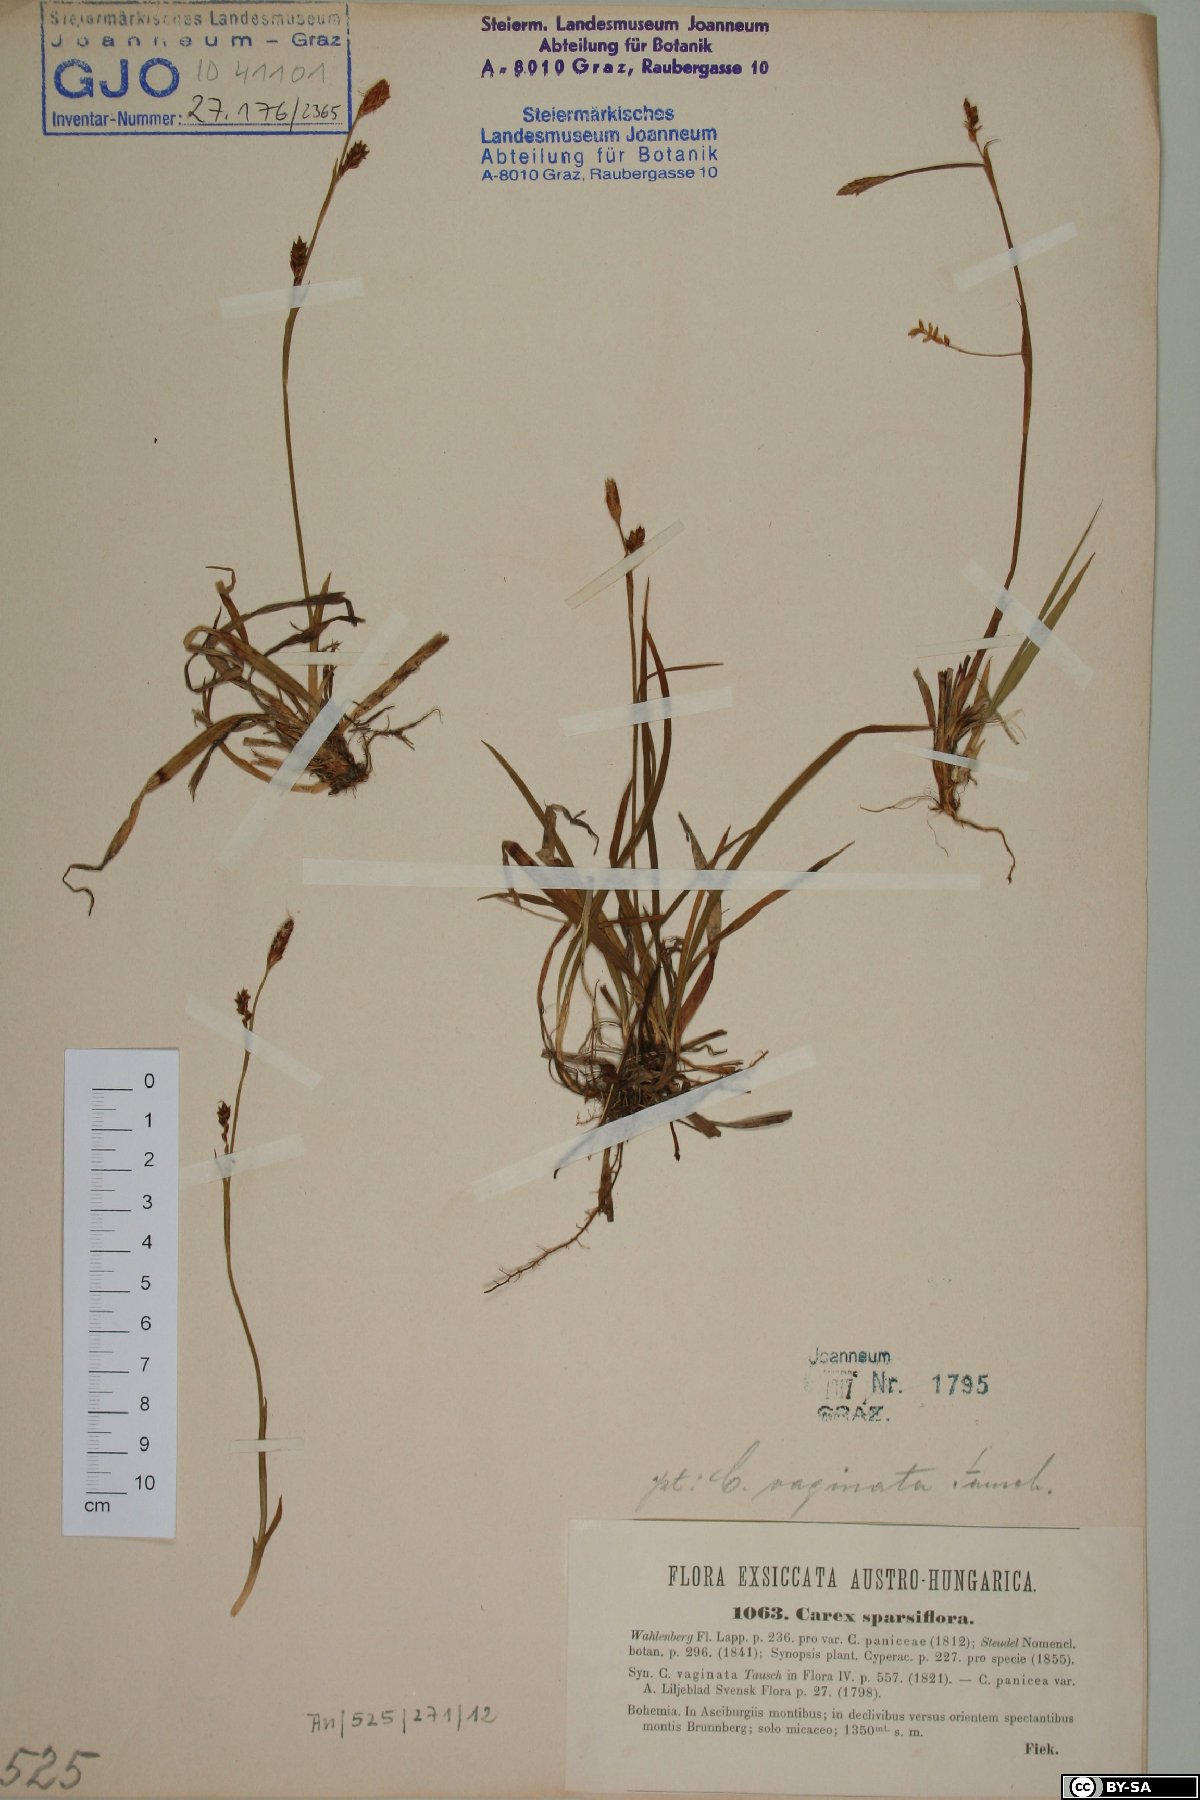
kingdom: Plantae
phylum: Tracheophyta
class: Liliopsida
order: Poales
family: Cyperaceae
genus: Carex
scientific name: Carex vaginata
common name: Sheathed sedge
